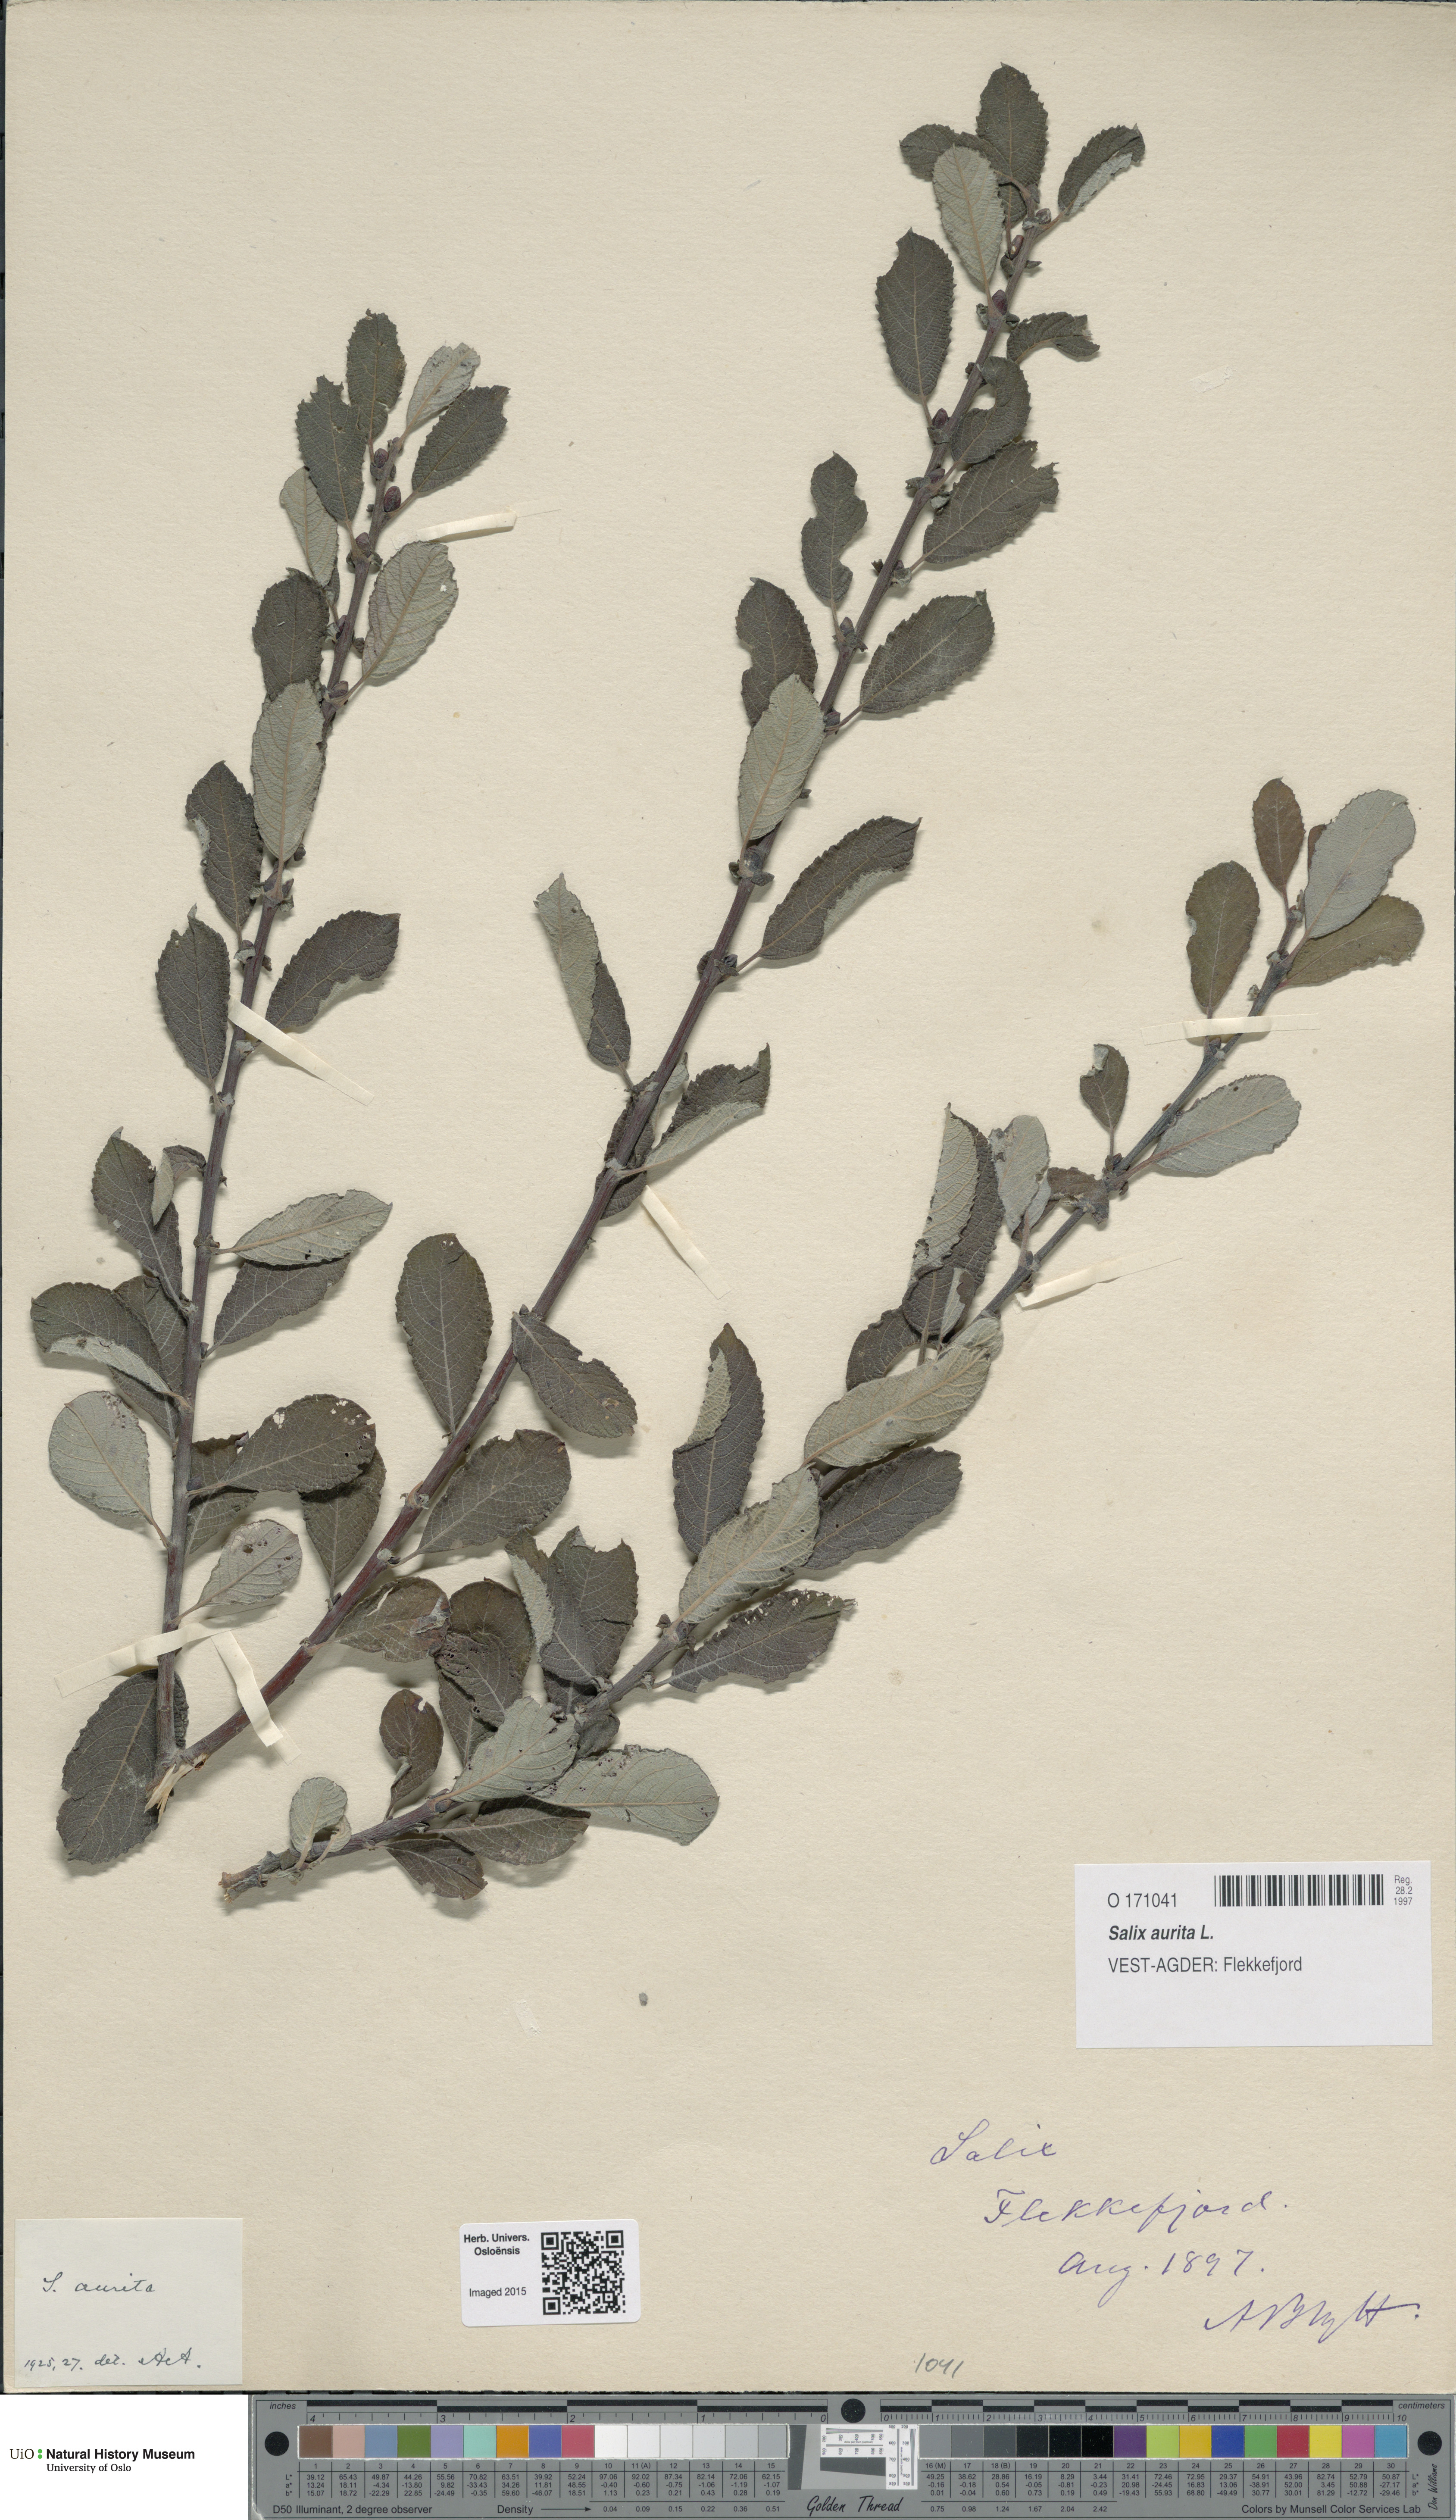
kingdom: Plantae
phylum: Tracheophyta
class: Magnoliopsida
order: Malpighiales
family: Salicaceae
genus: Salix
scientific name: Salix aurita
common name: Eared willow
